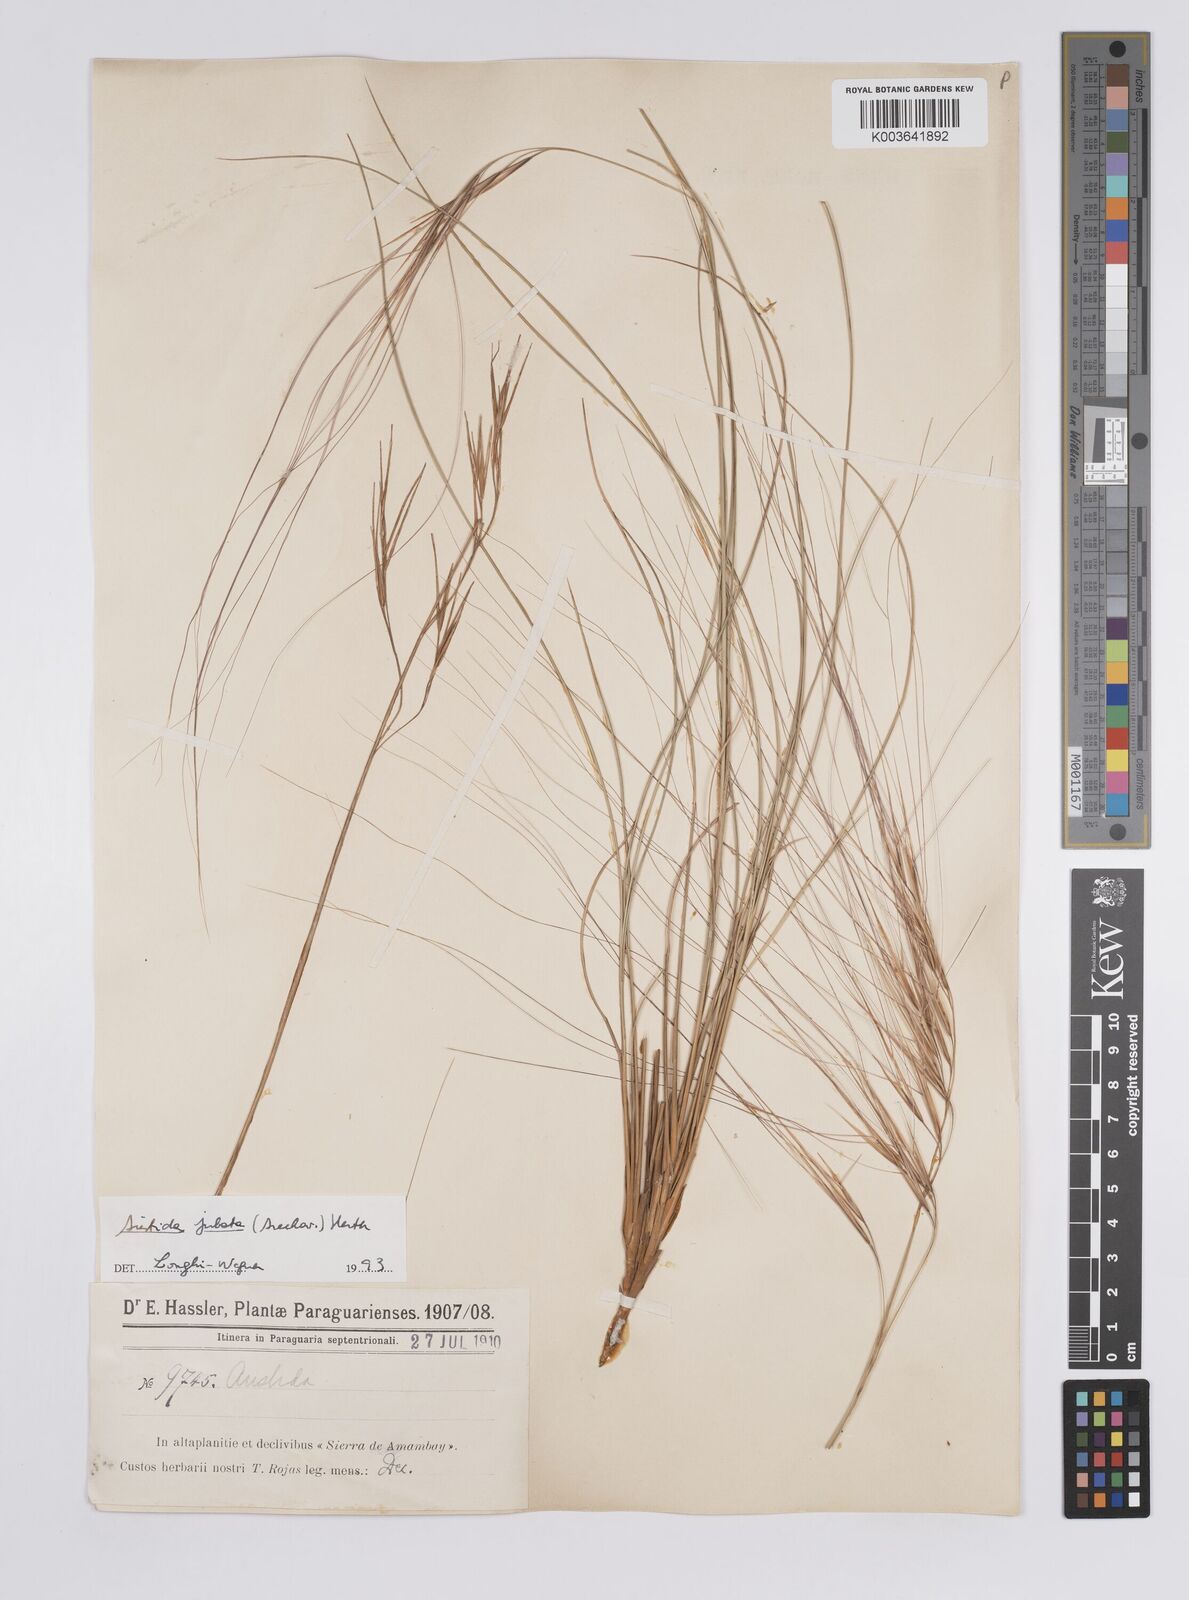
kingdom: Plantae
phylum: Tracheophyta
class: Liliopsida
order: Poales
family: Poaceae
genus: Aristida
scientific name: Aristida jubata
